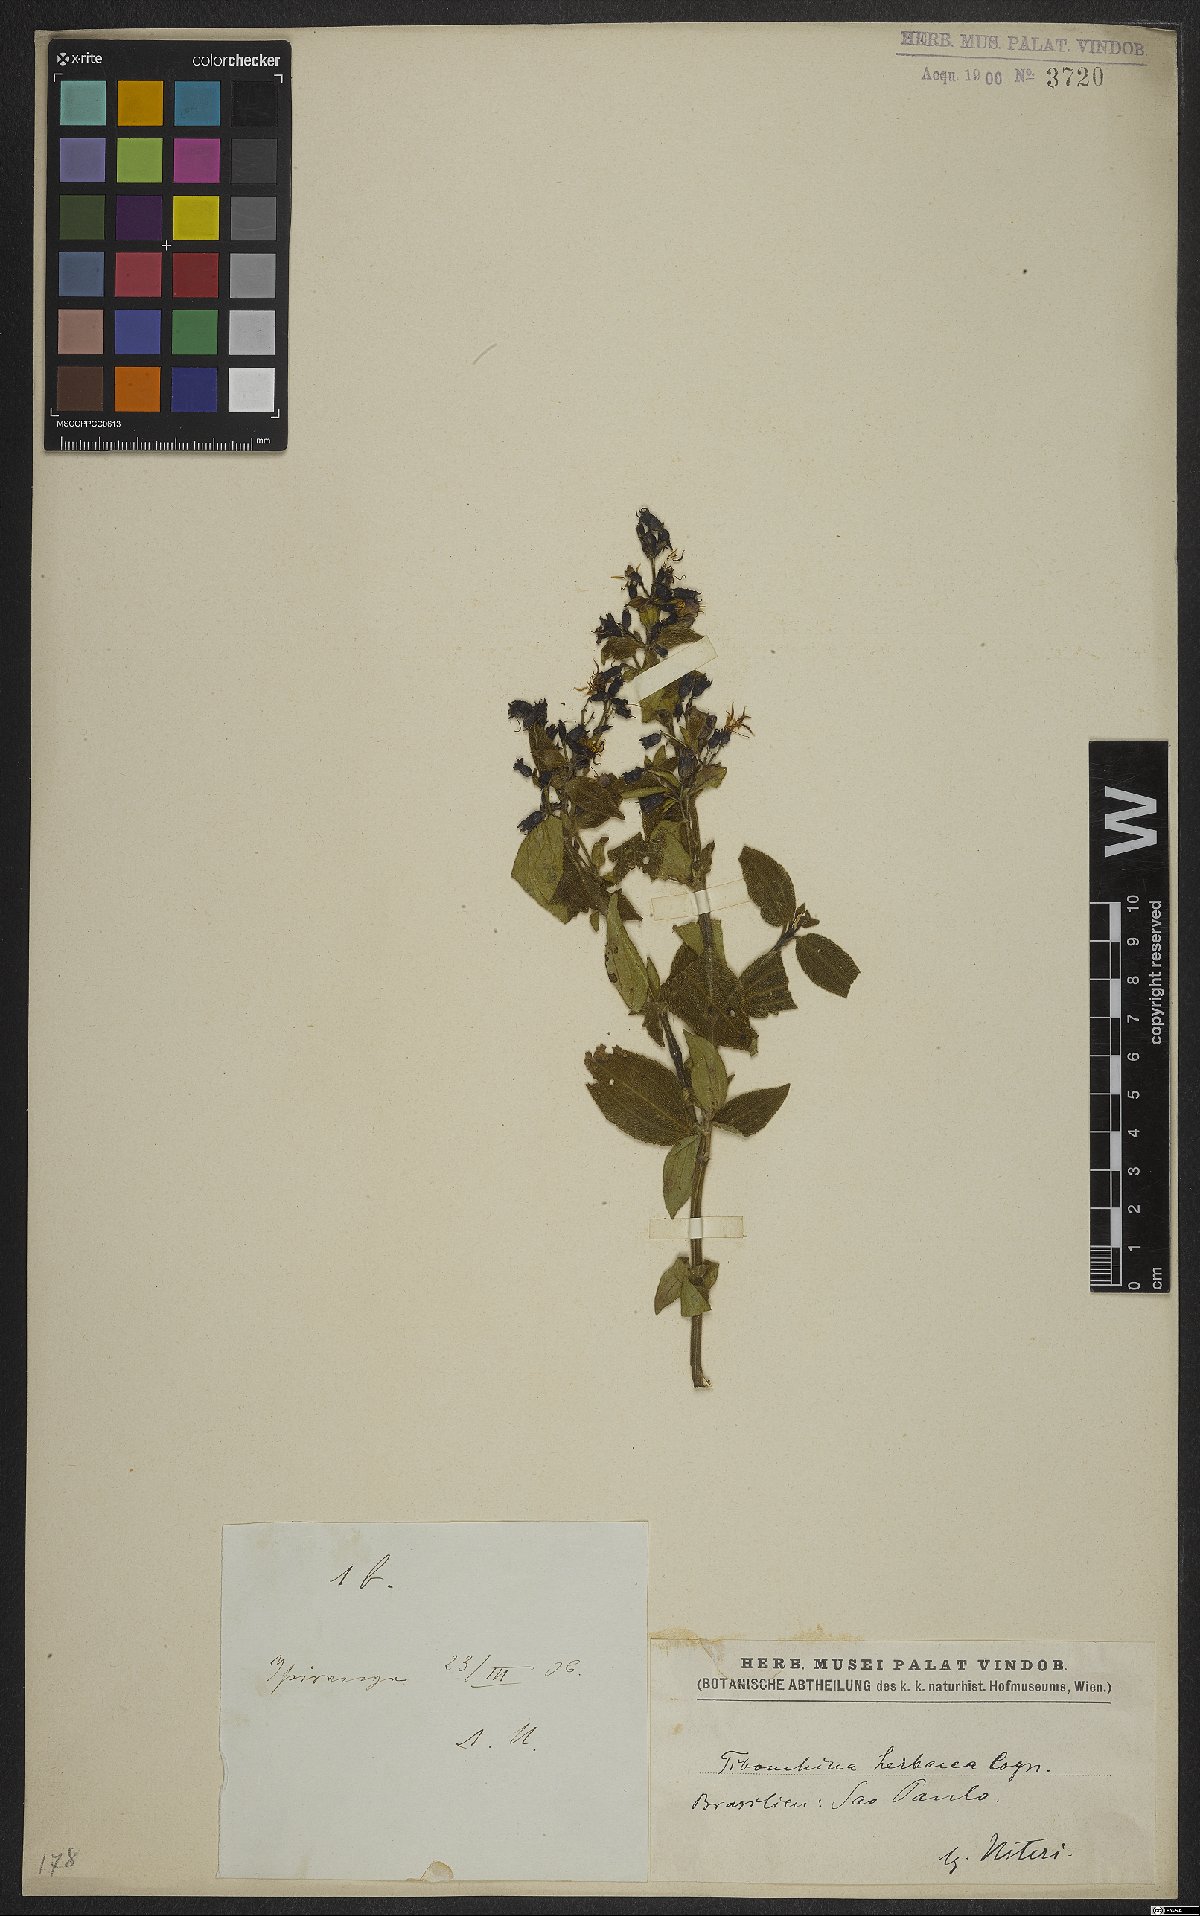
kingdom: Plantae
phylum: Tracheophyta
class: Magnoliopsida
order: Myrtales
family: Melastomataceae
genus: Chaetogastra
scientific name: Chaetogastra herbacea
